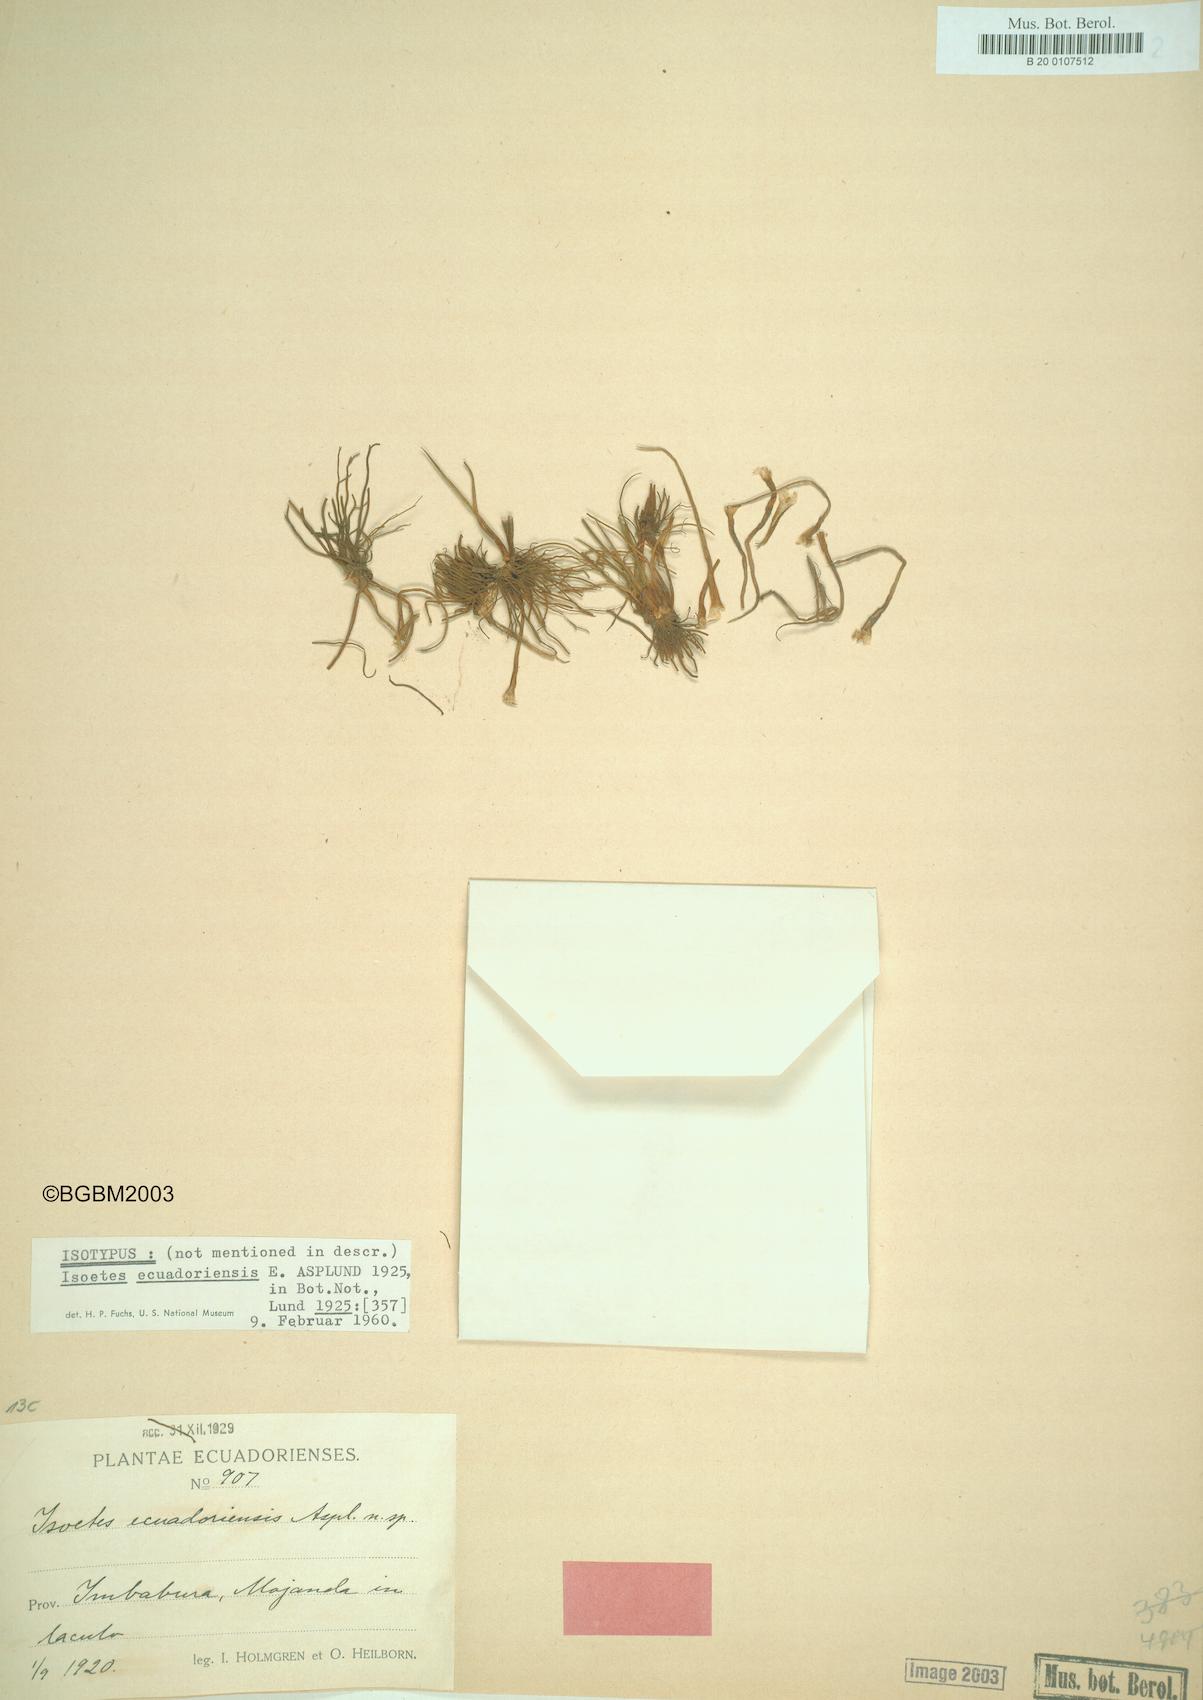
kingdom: Plantae
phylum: Tracheophyta
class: Lycopodiopsida
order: Isoetales
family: Isoetaceae
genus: Isoetes
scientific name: Isoetes ecuadoriensis
